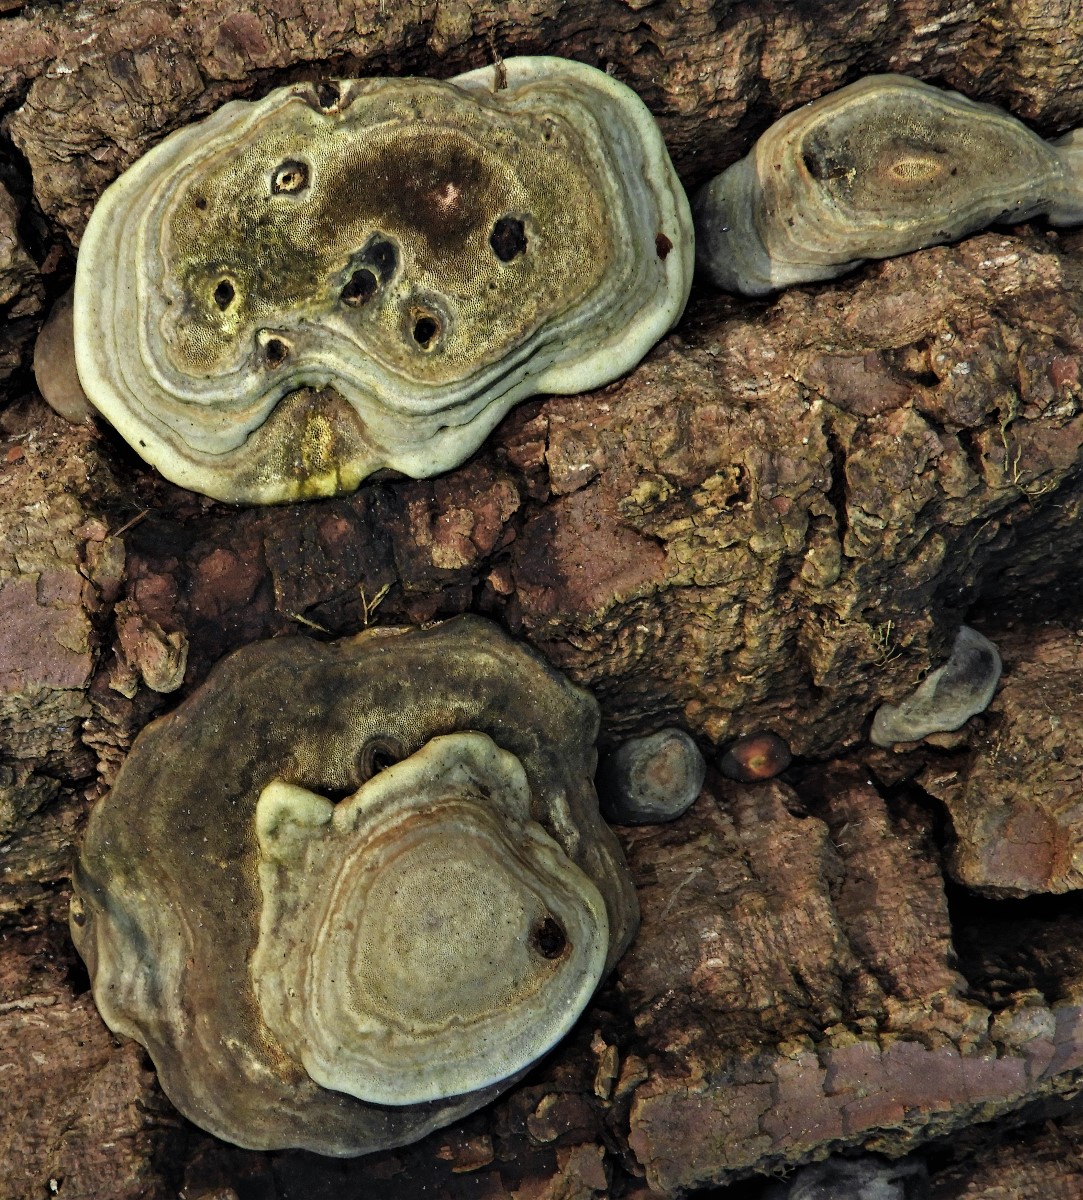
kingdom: Fungi
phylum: Basidiomycota
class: Agaricomycetes
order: Polyporales
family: Polyporaceae
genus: Fomes
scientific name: Fomes fomentarius
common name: tøndersvamp
